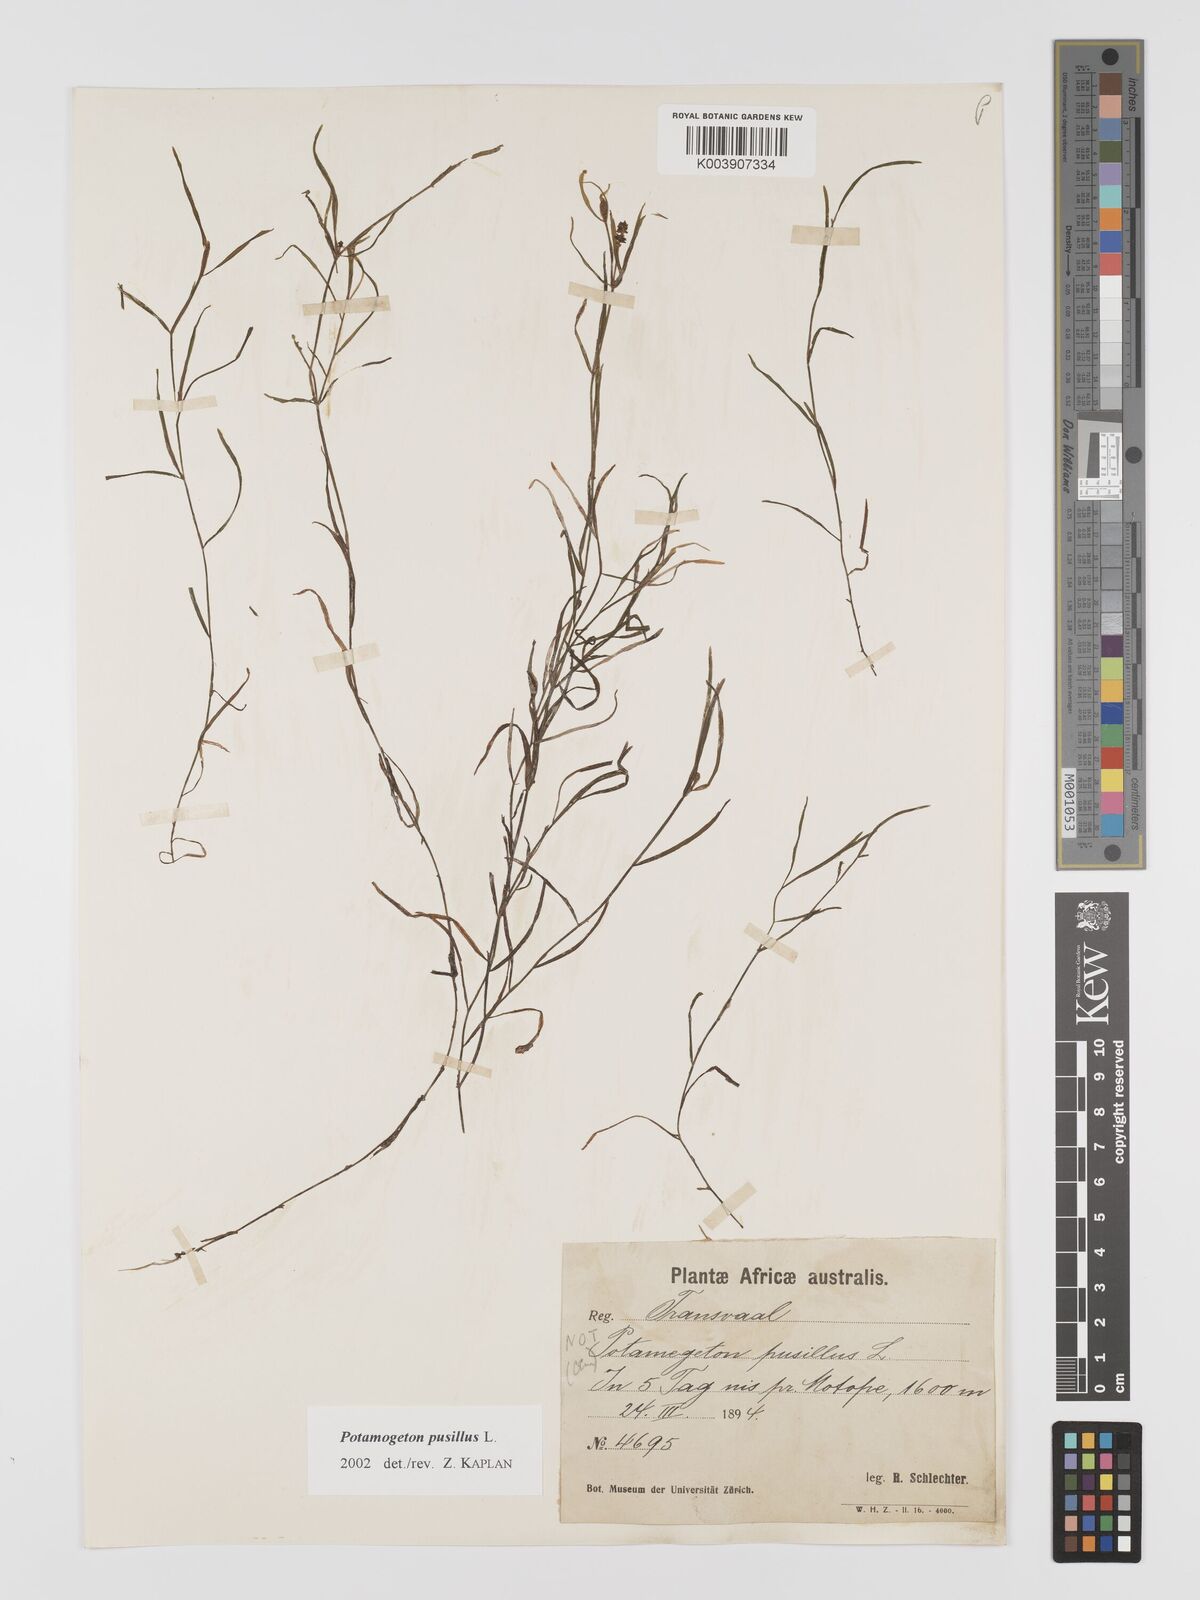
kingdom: Plantae
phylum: Tracheophyta
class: Liliopsida
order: Alismatales
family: Potamogetonaceae
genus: Potamogeton
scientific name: Potamogeton pusillus
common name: Lesser pondweed
